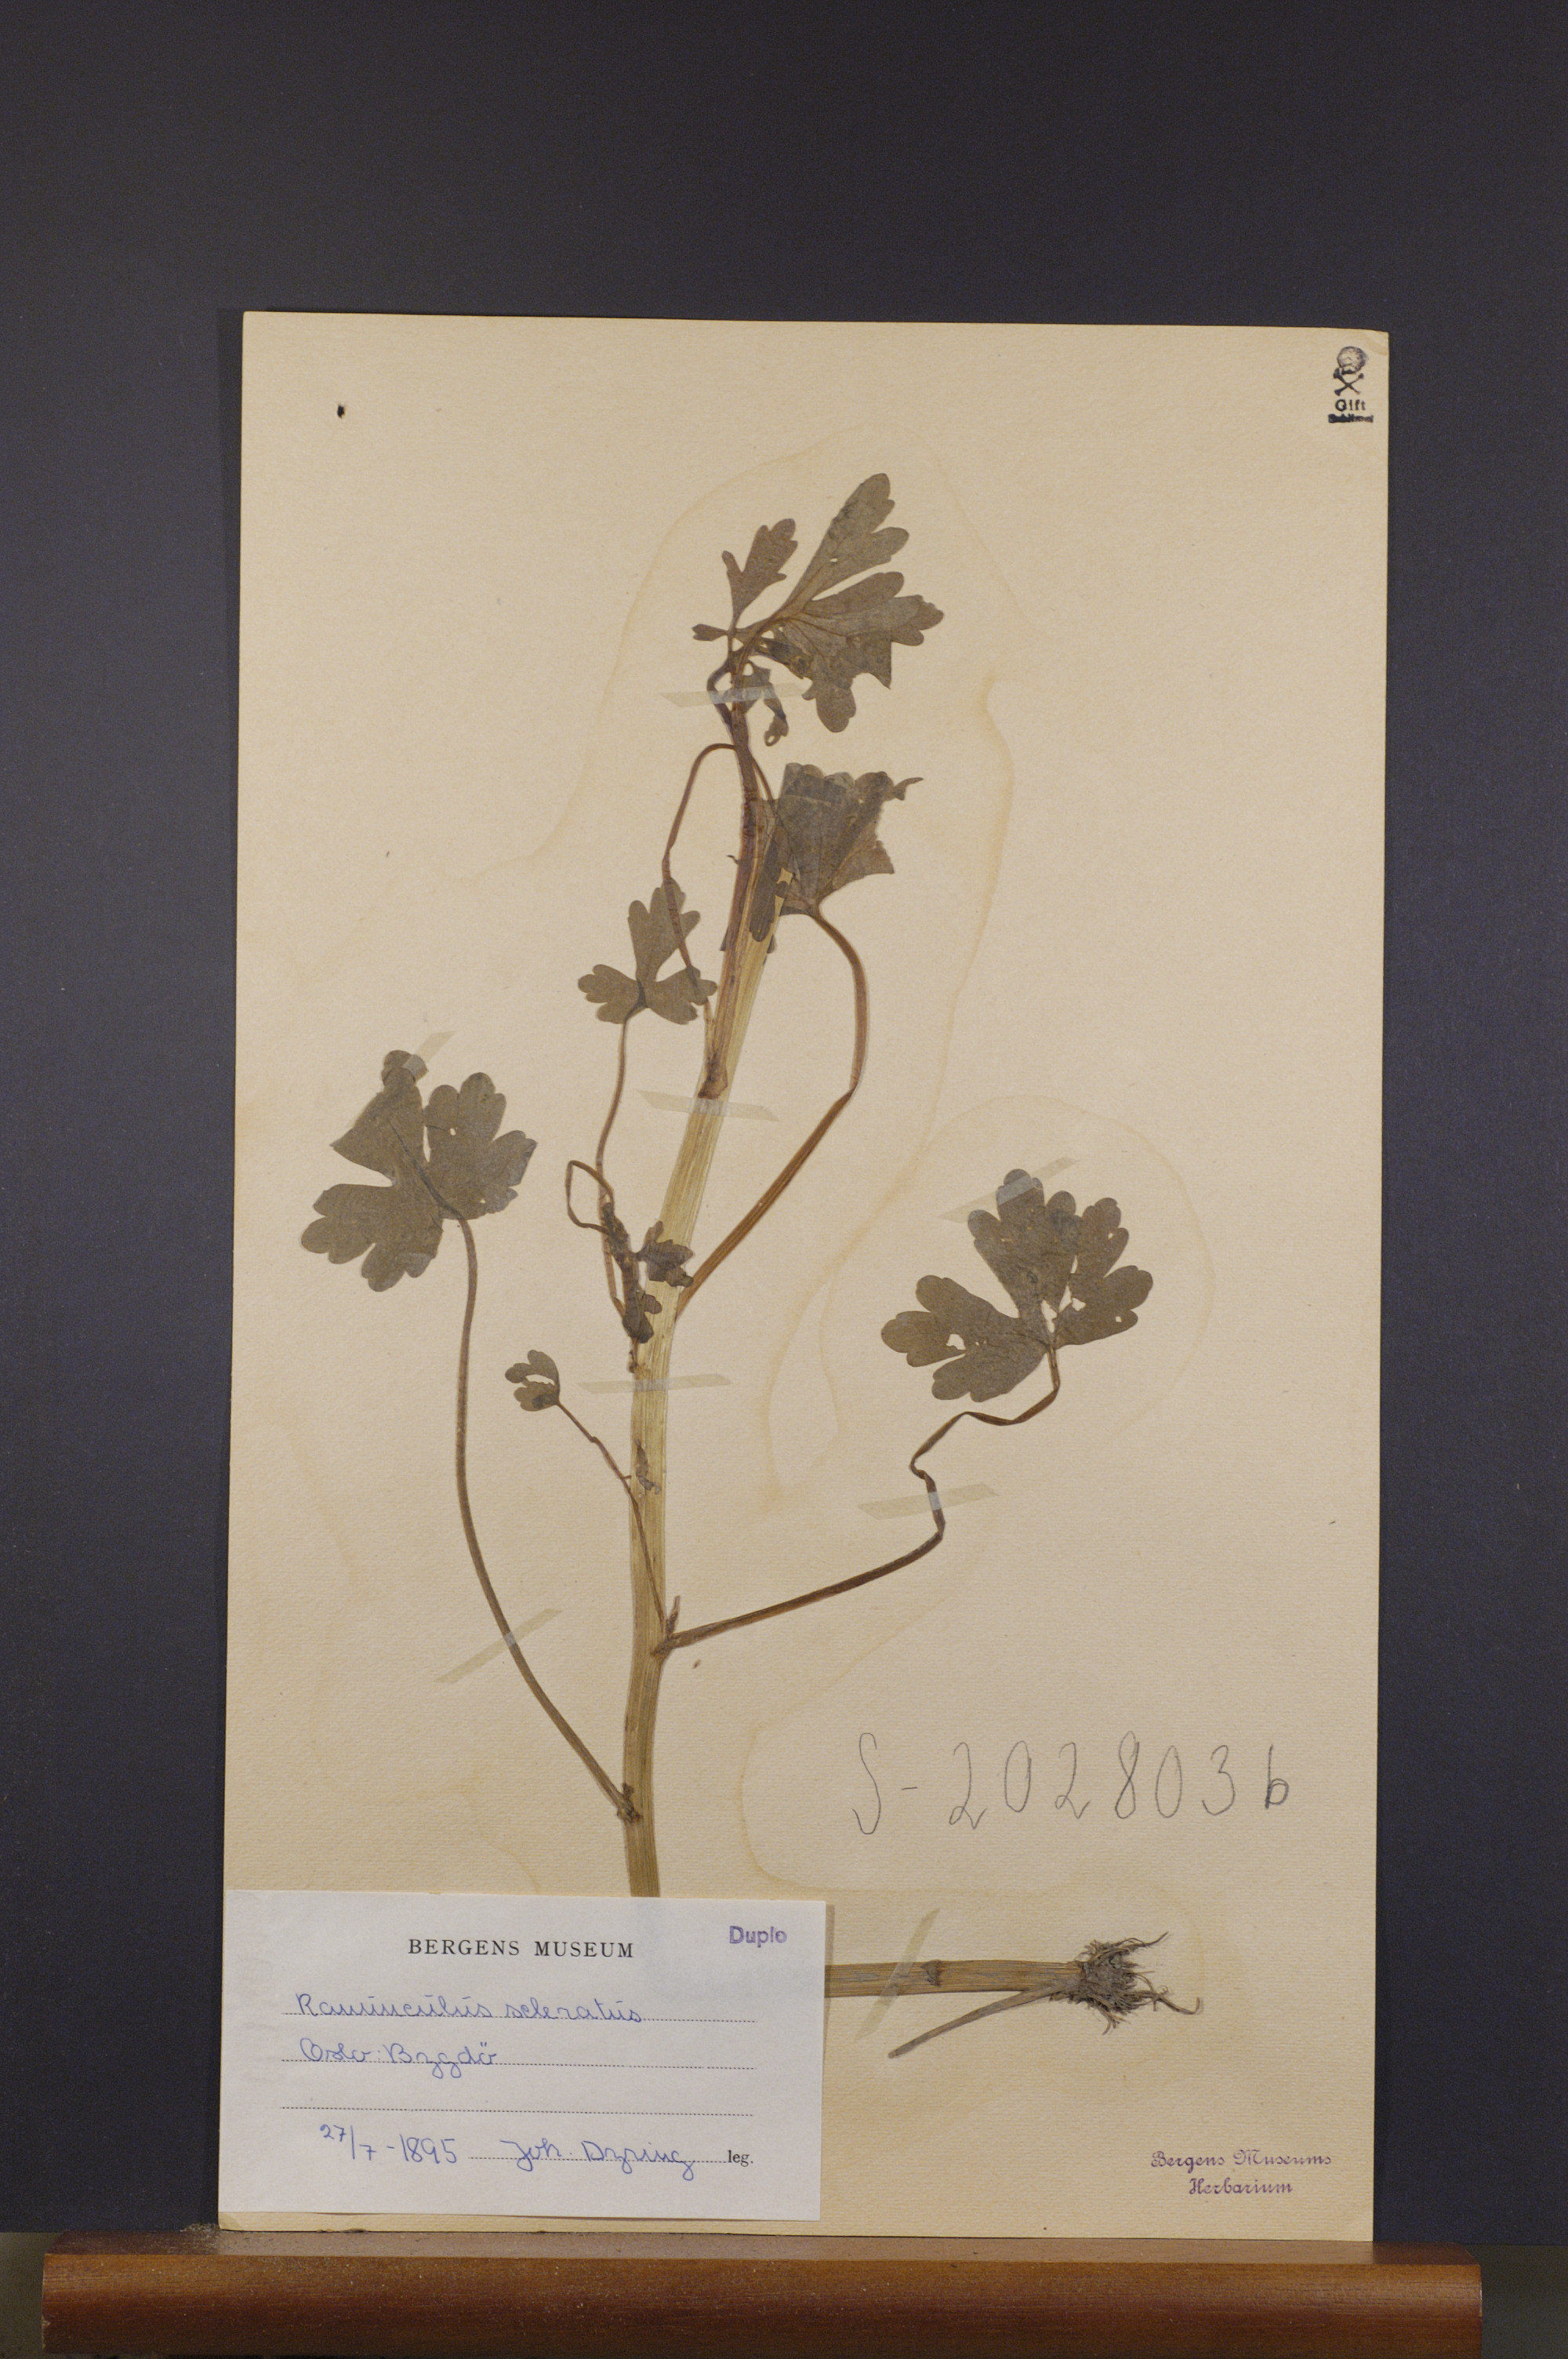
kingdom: Plantae
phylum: Tracheophyta
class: Magnoliopsida
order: Ranunculales
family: Ranunculaceae
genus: Ranunculus
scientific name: Ranunculus sceleratus
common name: Celery-leaved buttercup
